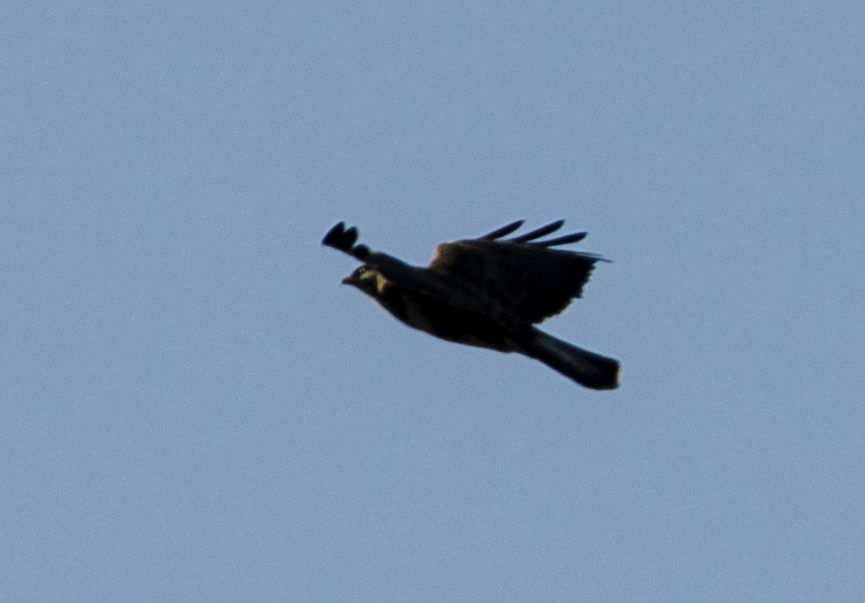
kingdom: Animalia
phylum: Chordata
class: Aves
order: Accipitriformes
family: Accipitridae
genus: Buteo
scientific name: Buteo buteo
